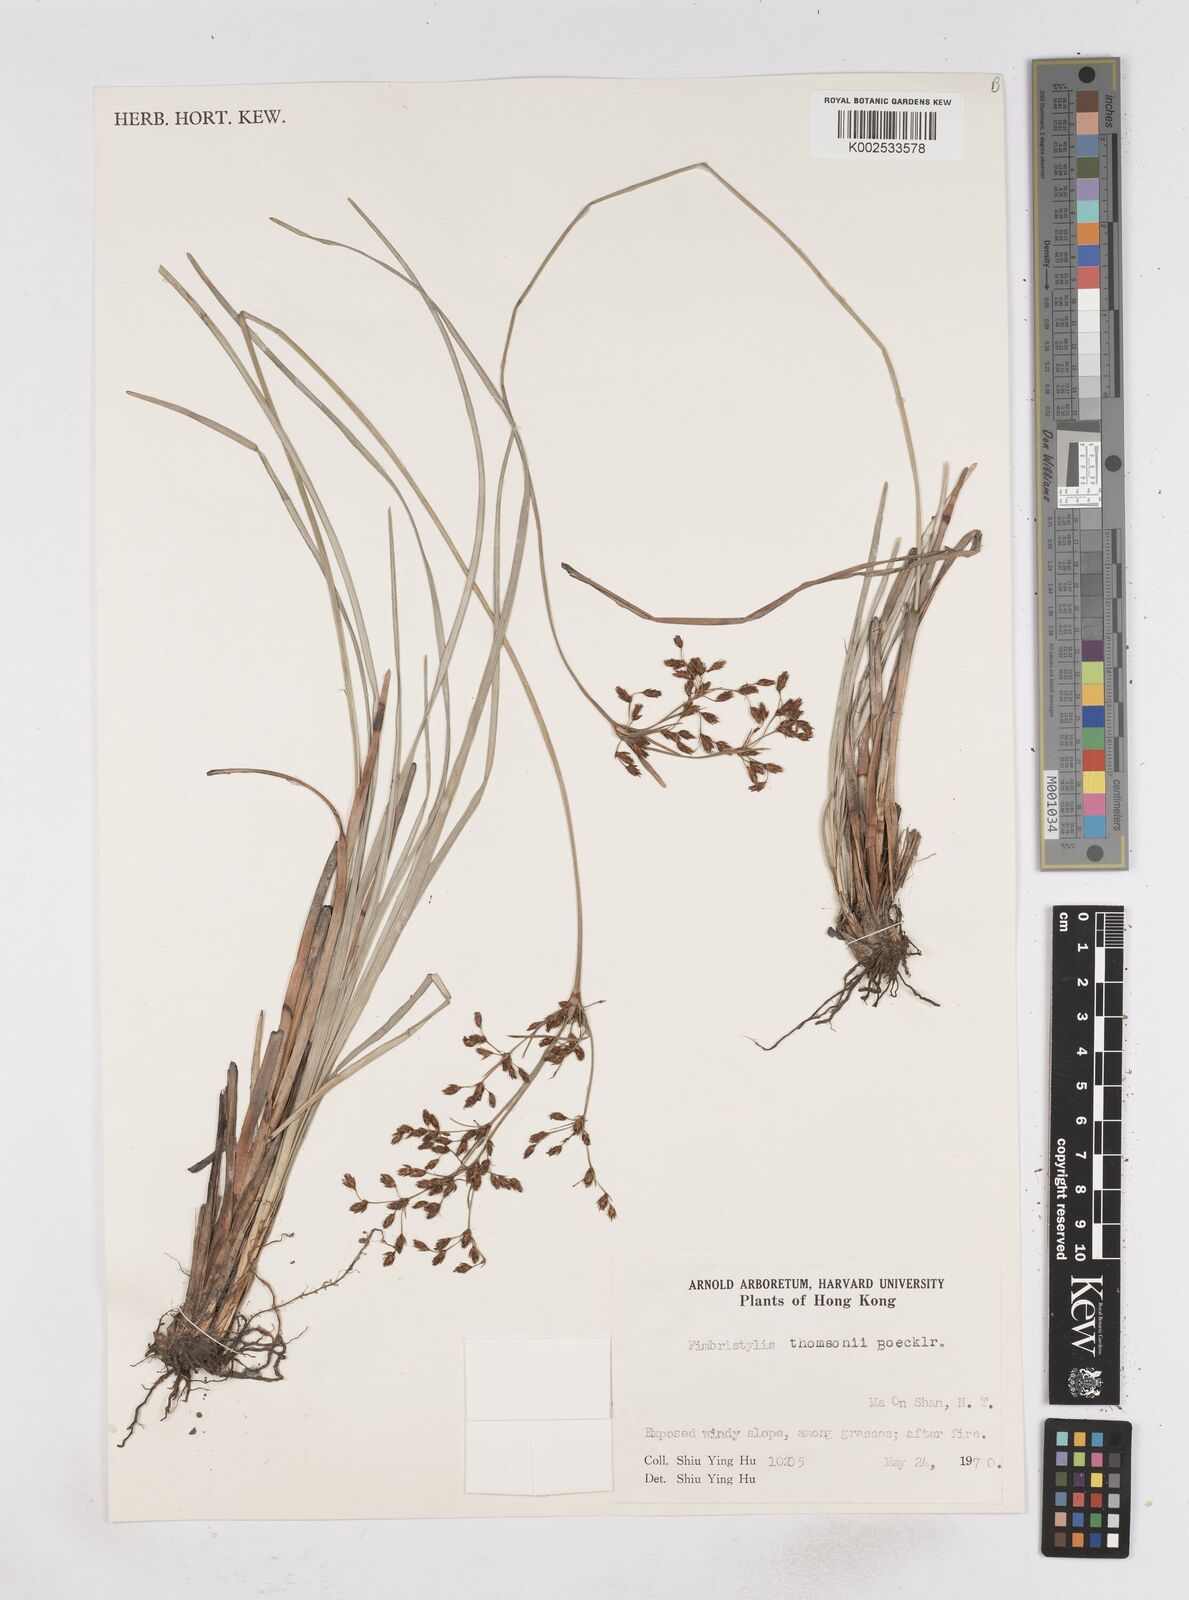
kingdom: Plantae
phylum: Tracheophyta
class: Liliopsida
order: Poales
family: Cyperaceae
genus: Fimbristylis
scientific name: Fimbristylis thomsonii
